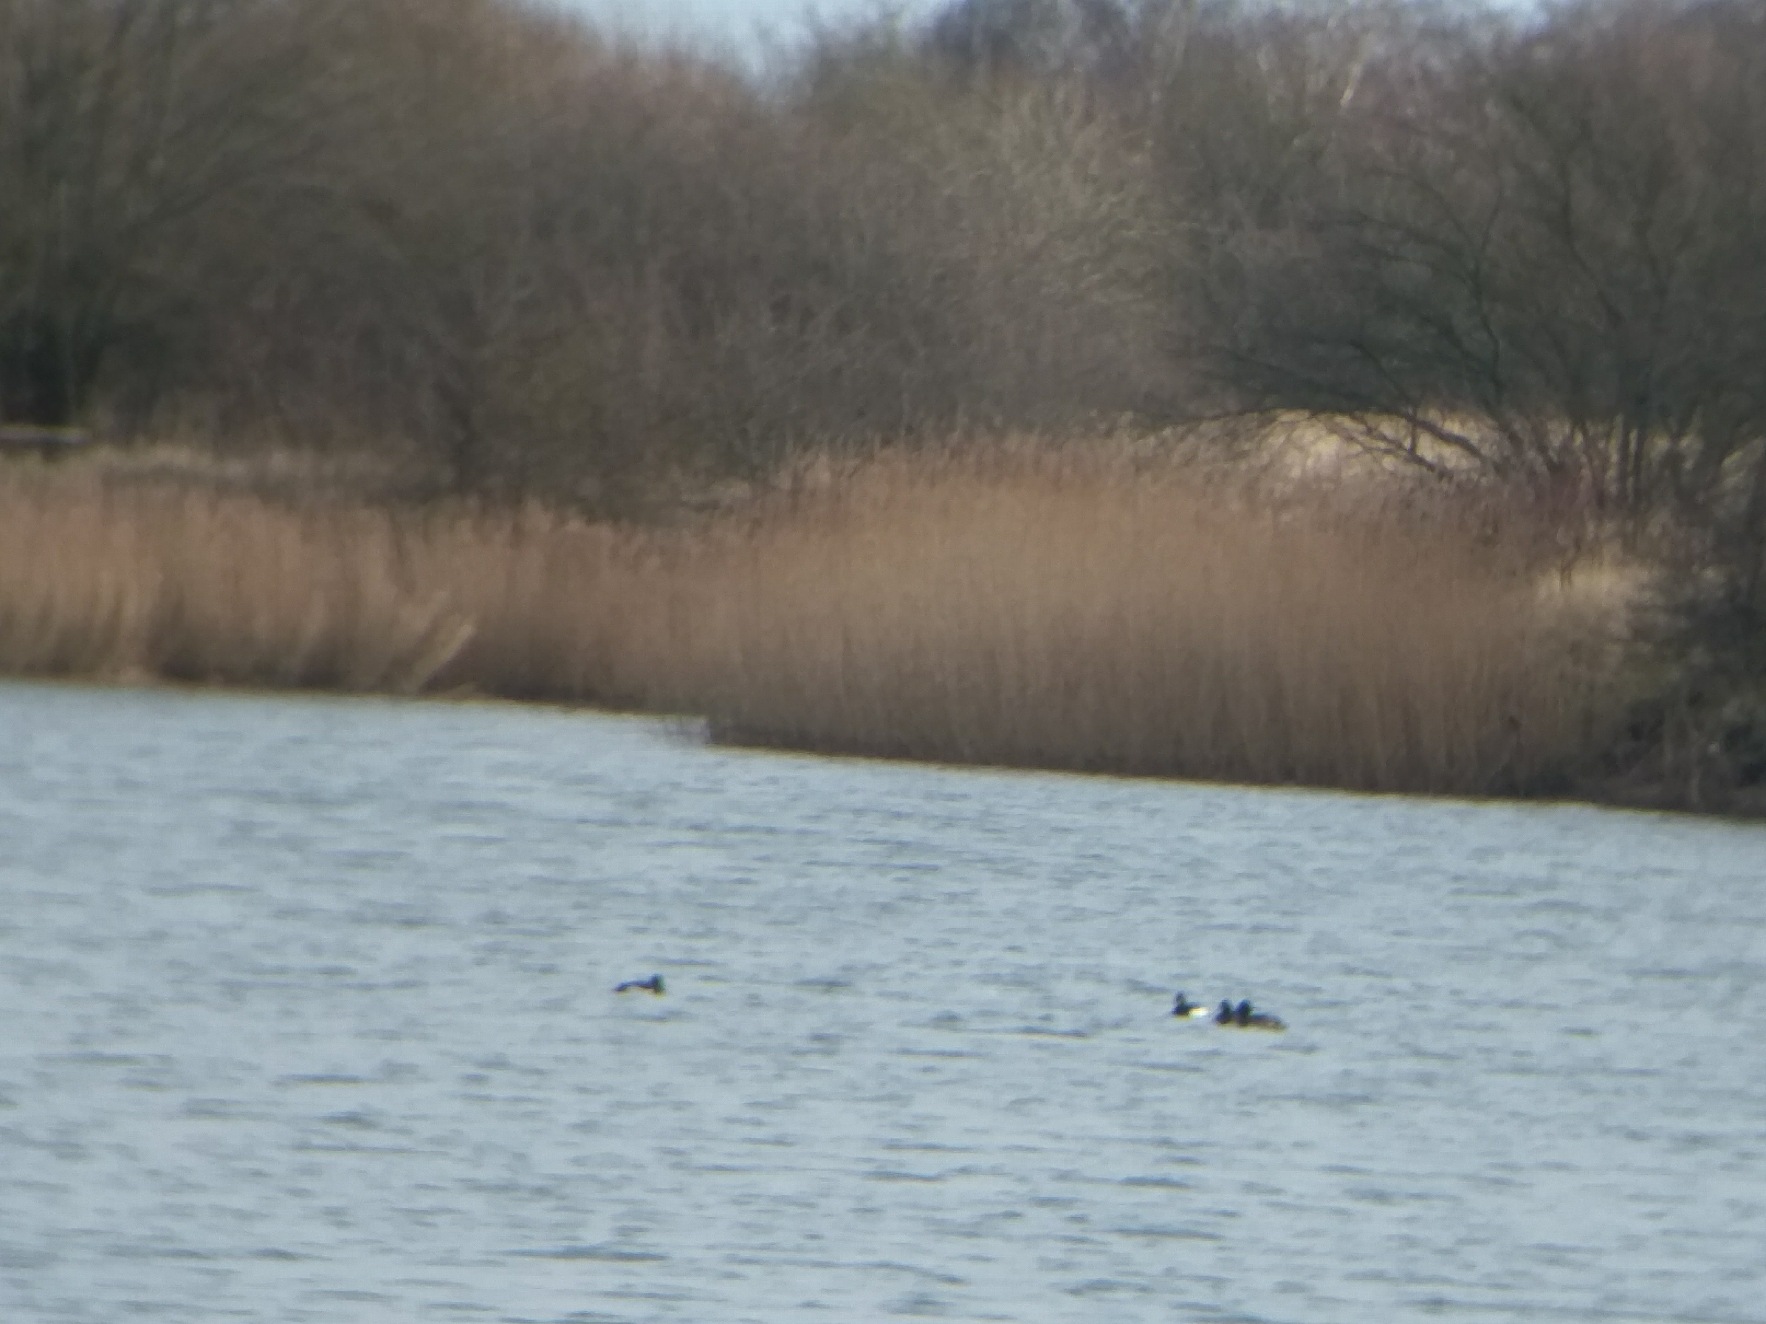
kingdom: Animalia
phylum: Chordata
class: Aves
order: Anseriformes
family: Anatidae
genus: Aythya
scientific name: Aythya fuligula
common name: Troldand
